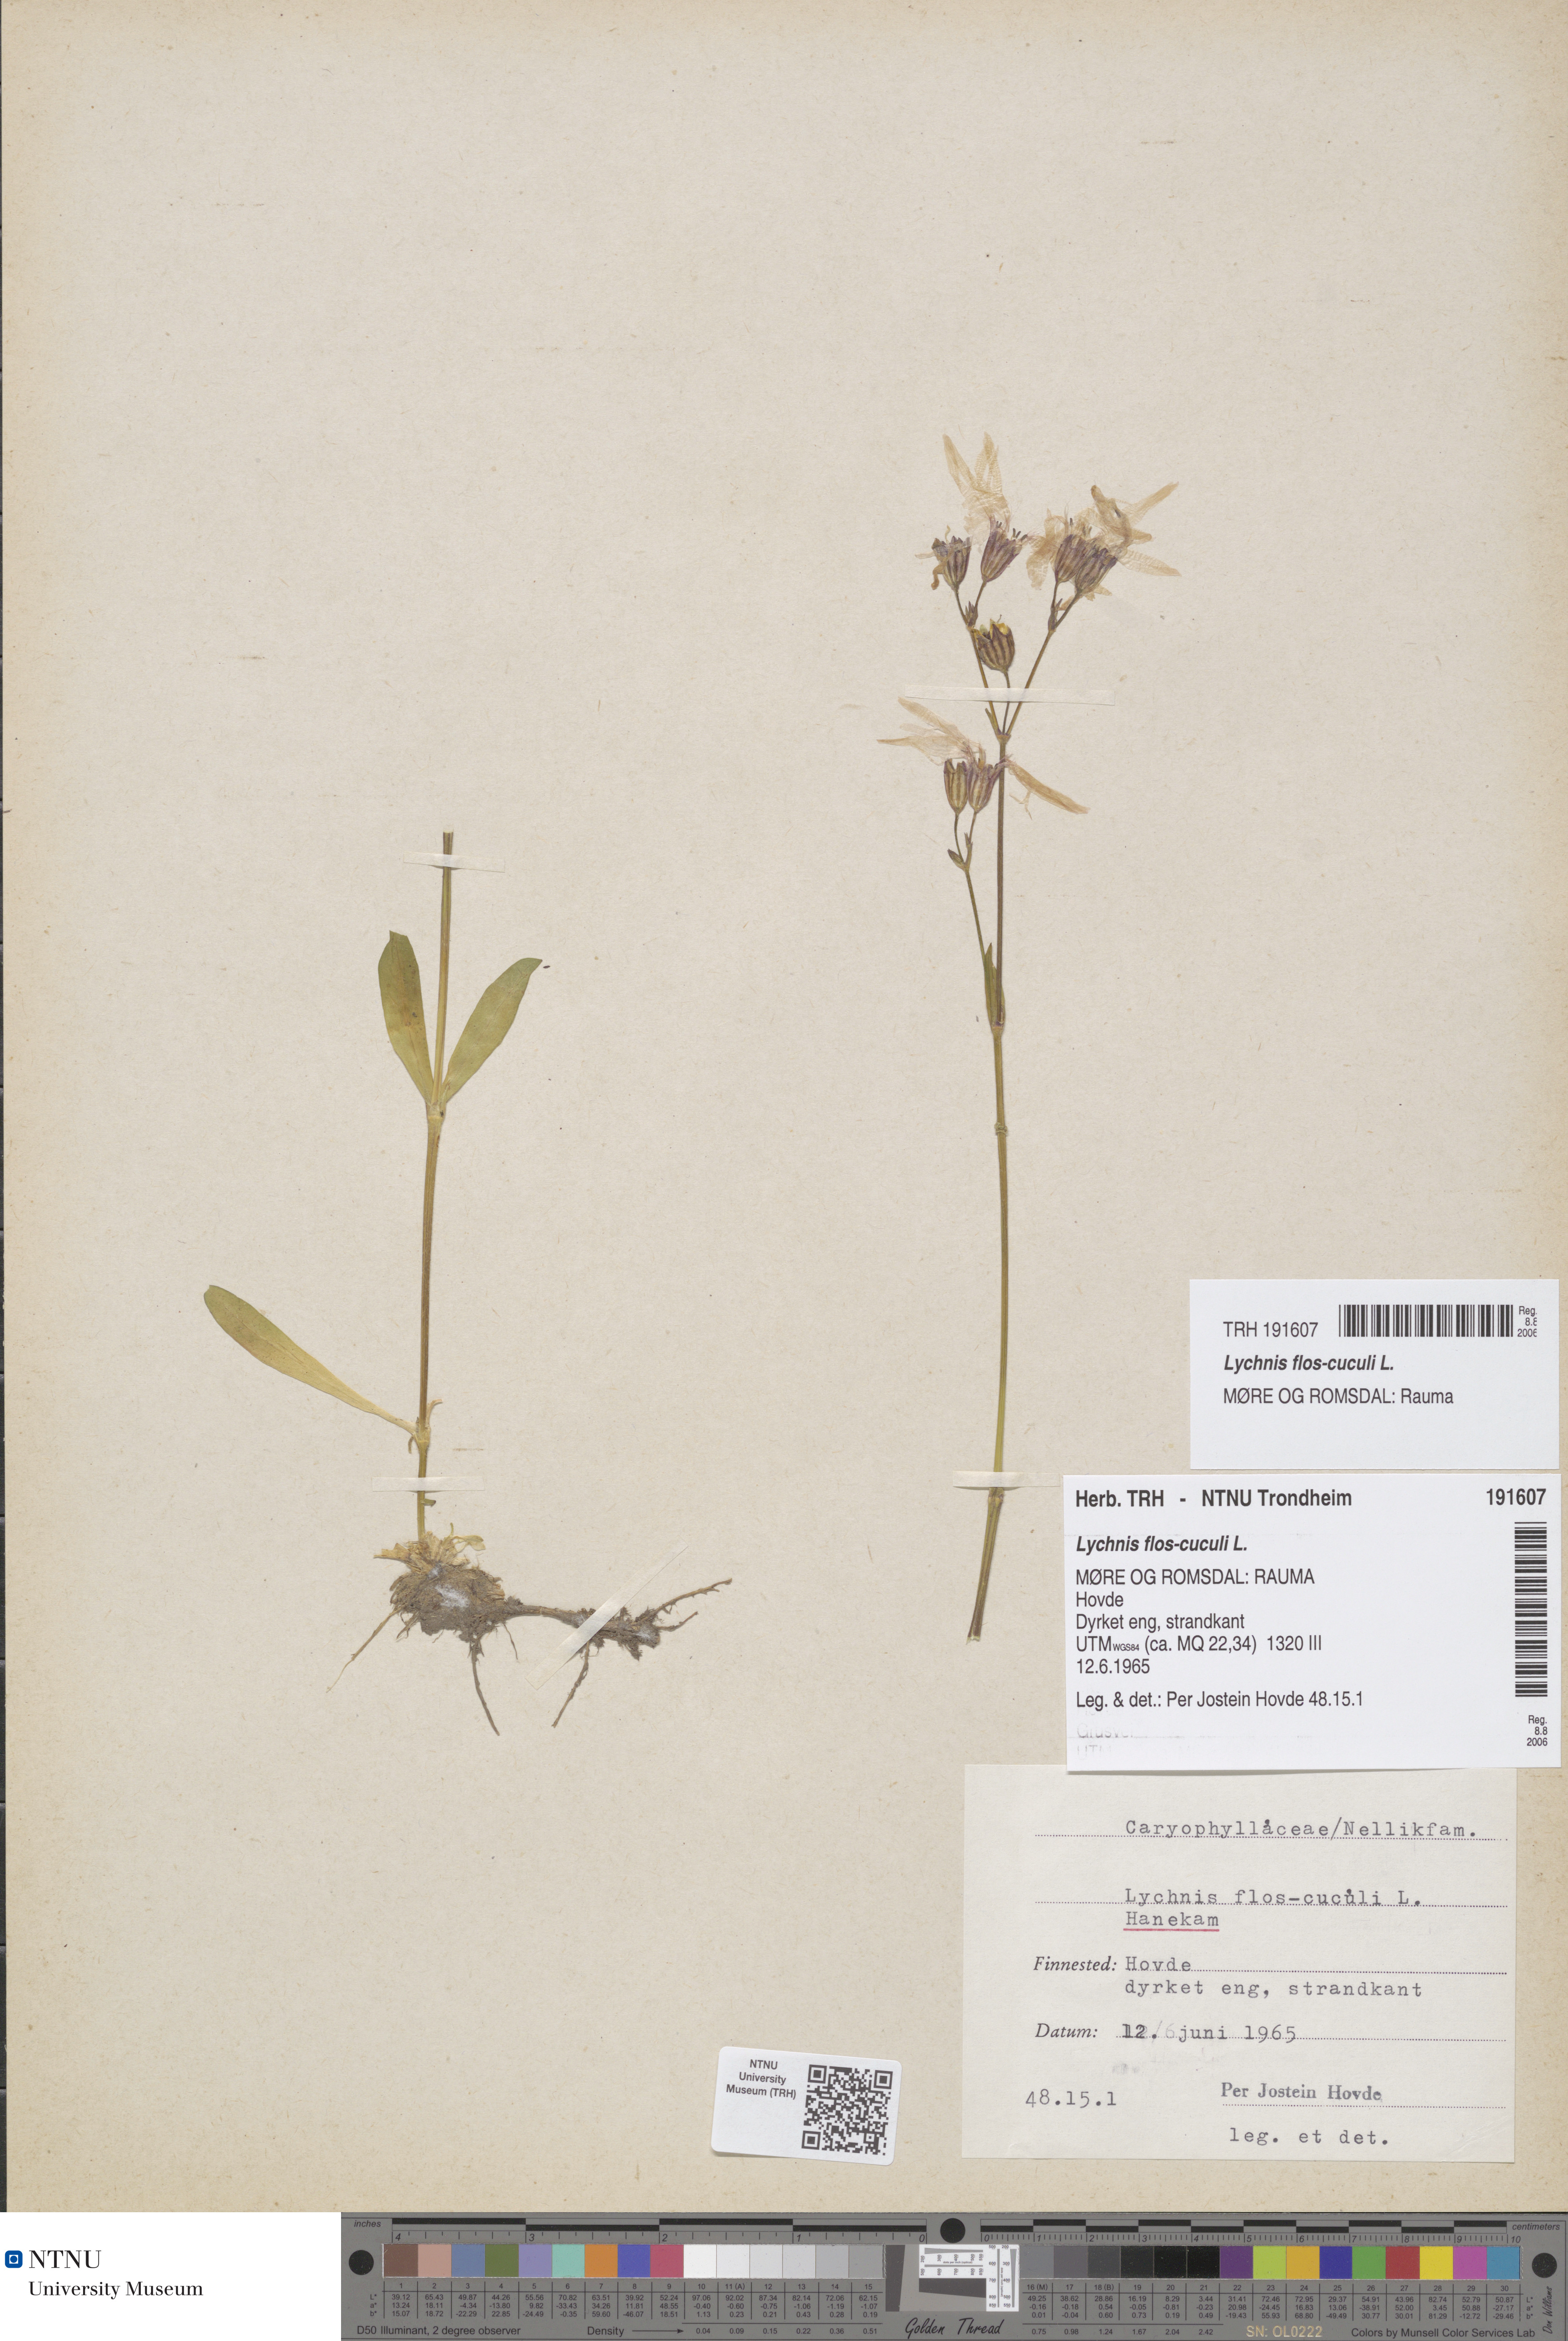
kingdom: Plantae
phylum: Tracheophyta
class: Magnoliopsida
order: Caryophyllales
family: Caryophyllaceae
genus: Silene
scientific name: Silene flos-cuculi
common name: Ragged-robin
